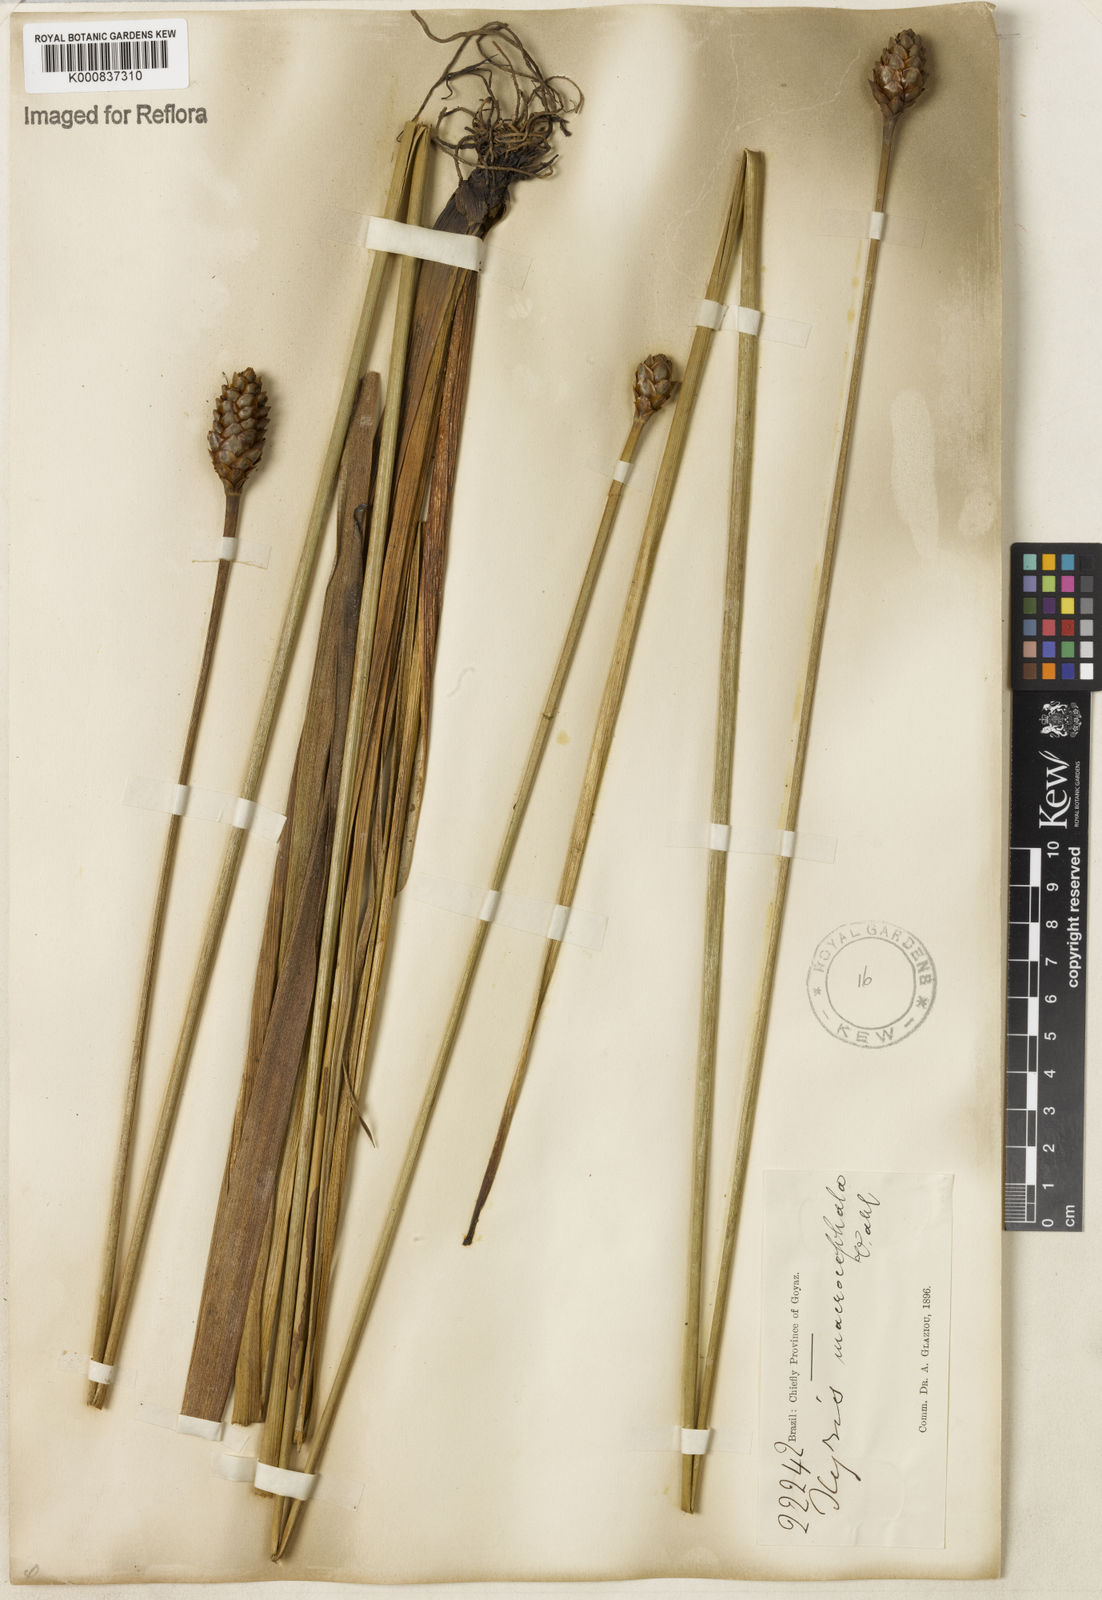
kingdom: Plantae
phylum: Tracheophyta
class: Liliopsida
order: Poales
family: Xyridaceae
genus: Xyris
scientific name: Xyris jupicai
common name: Richard's yelloweyed grass
